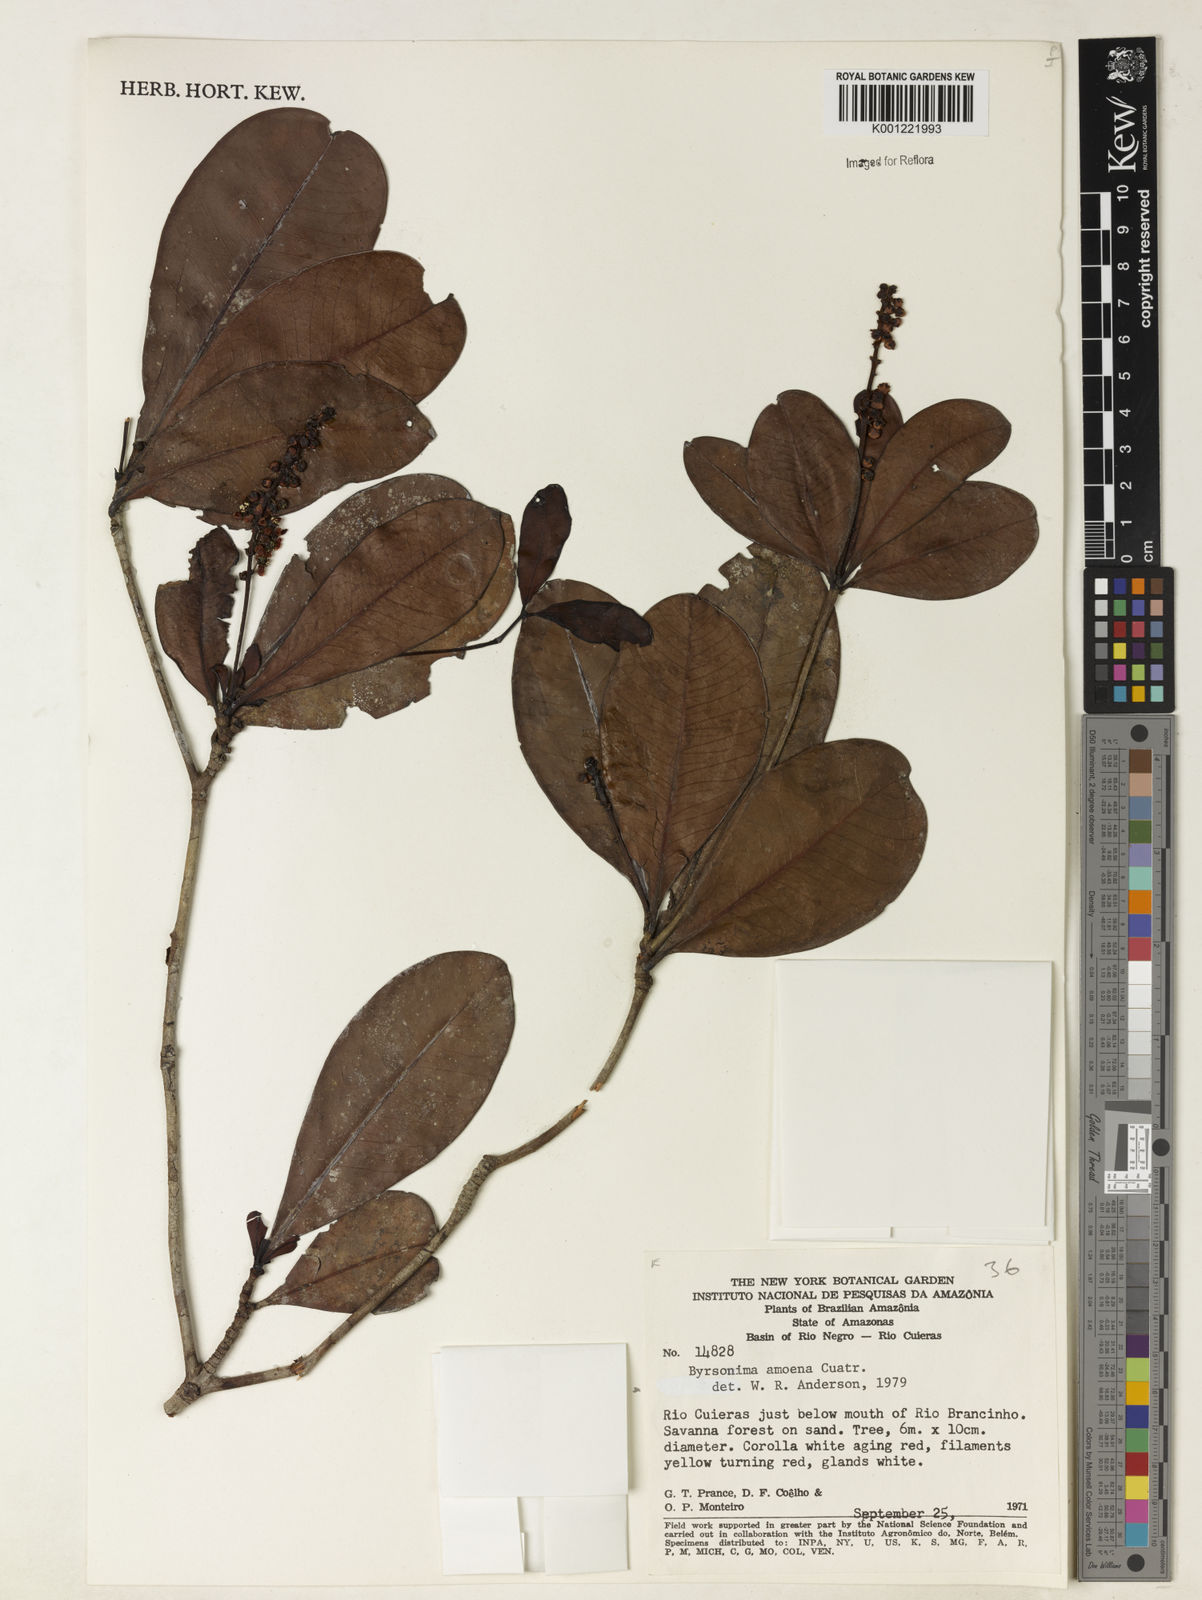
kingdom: Plantae
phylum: Tracheophyta
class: Magnoliopsida
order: Malpighiales
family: Malpighiaceae
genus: Byrsonima
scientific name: Byrsonima amoena
